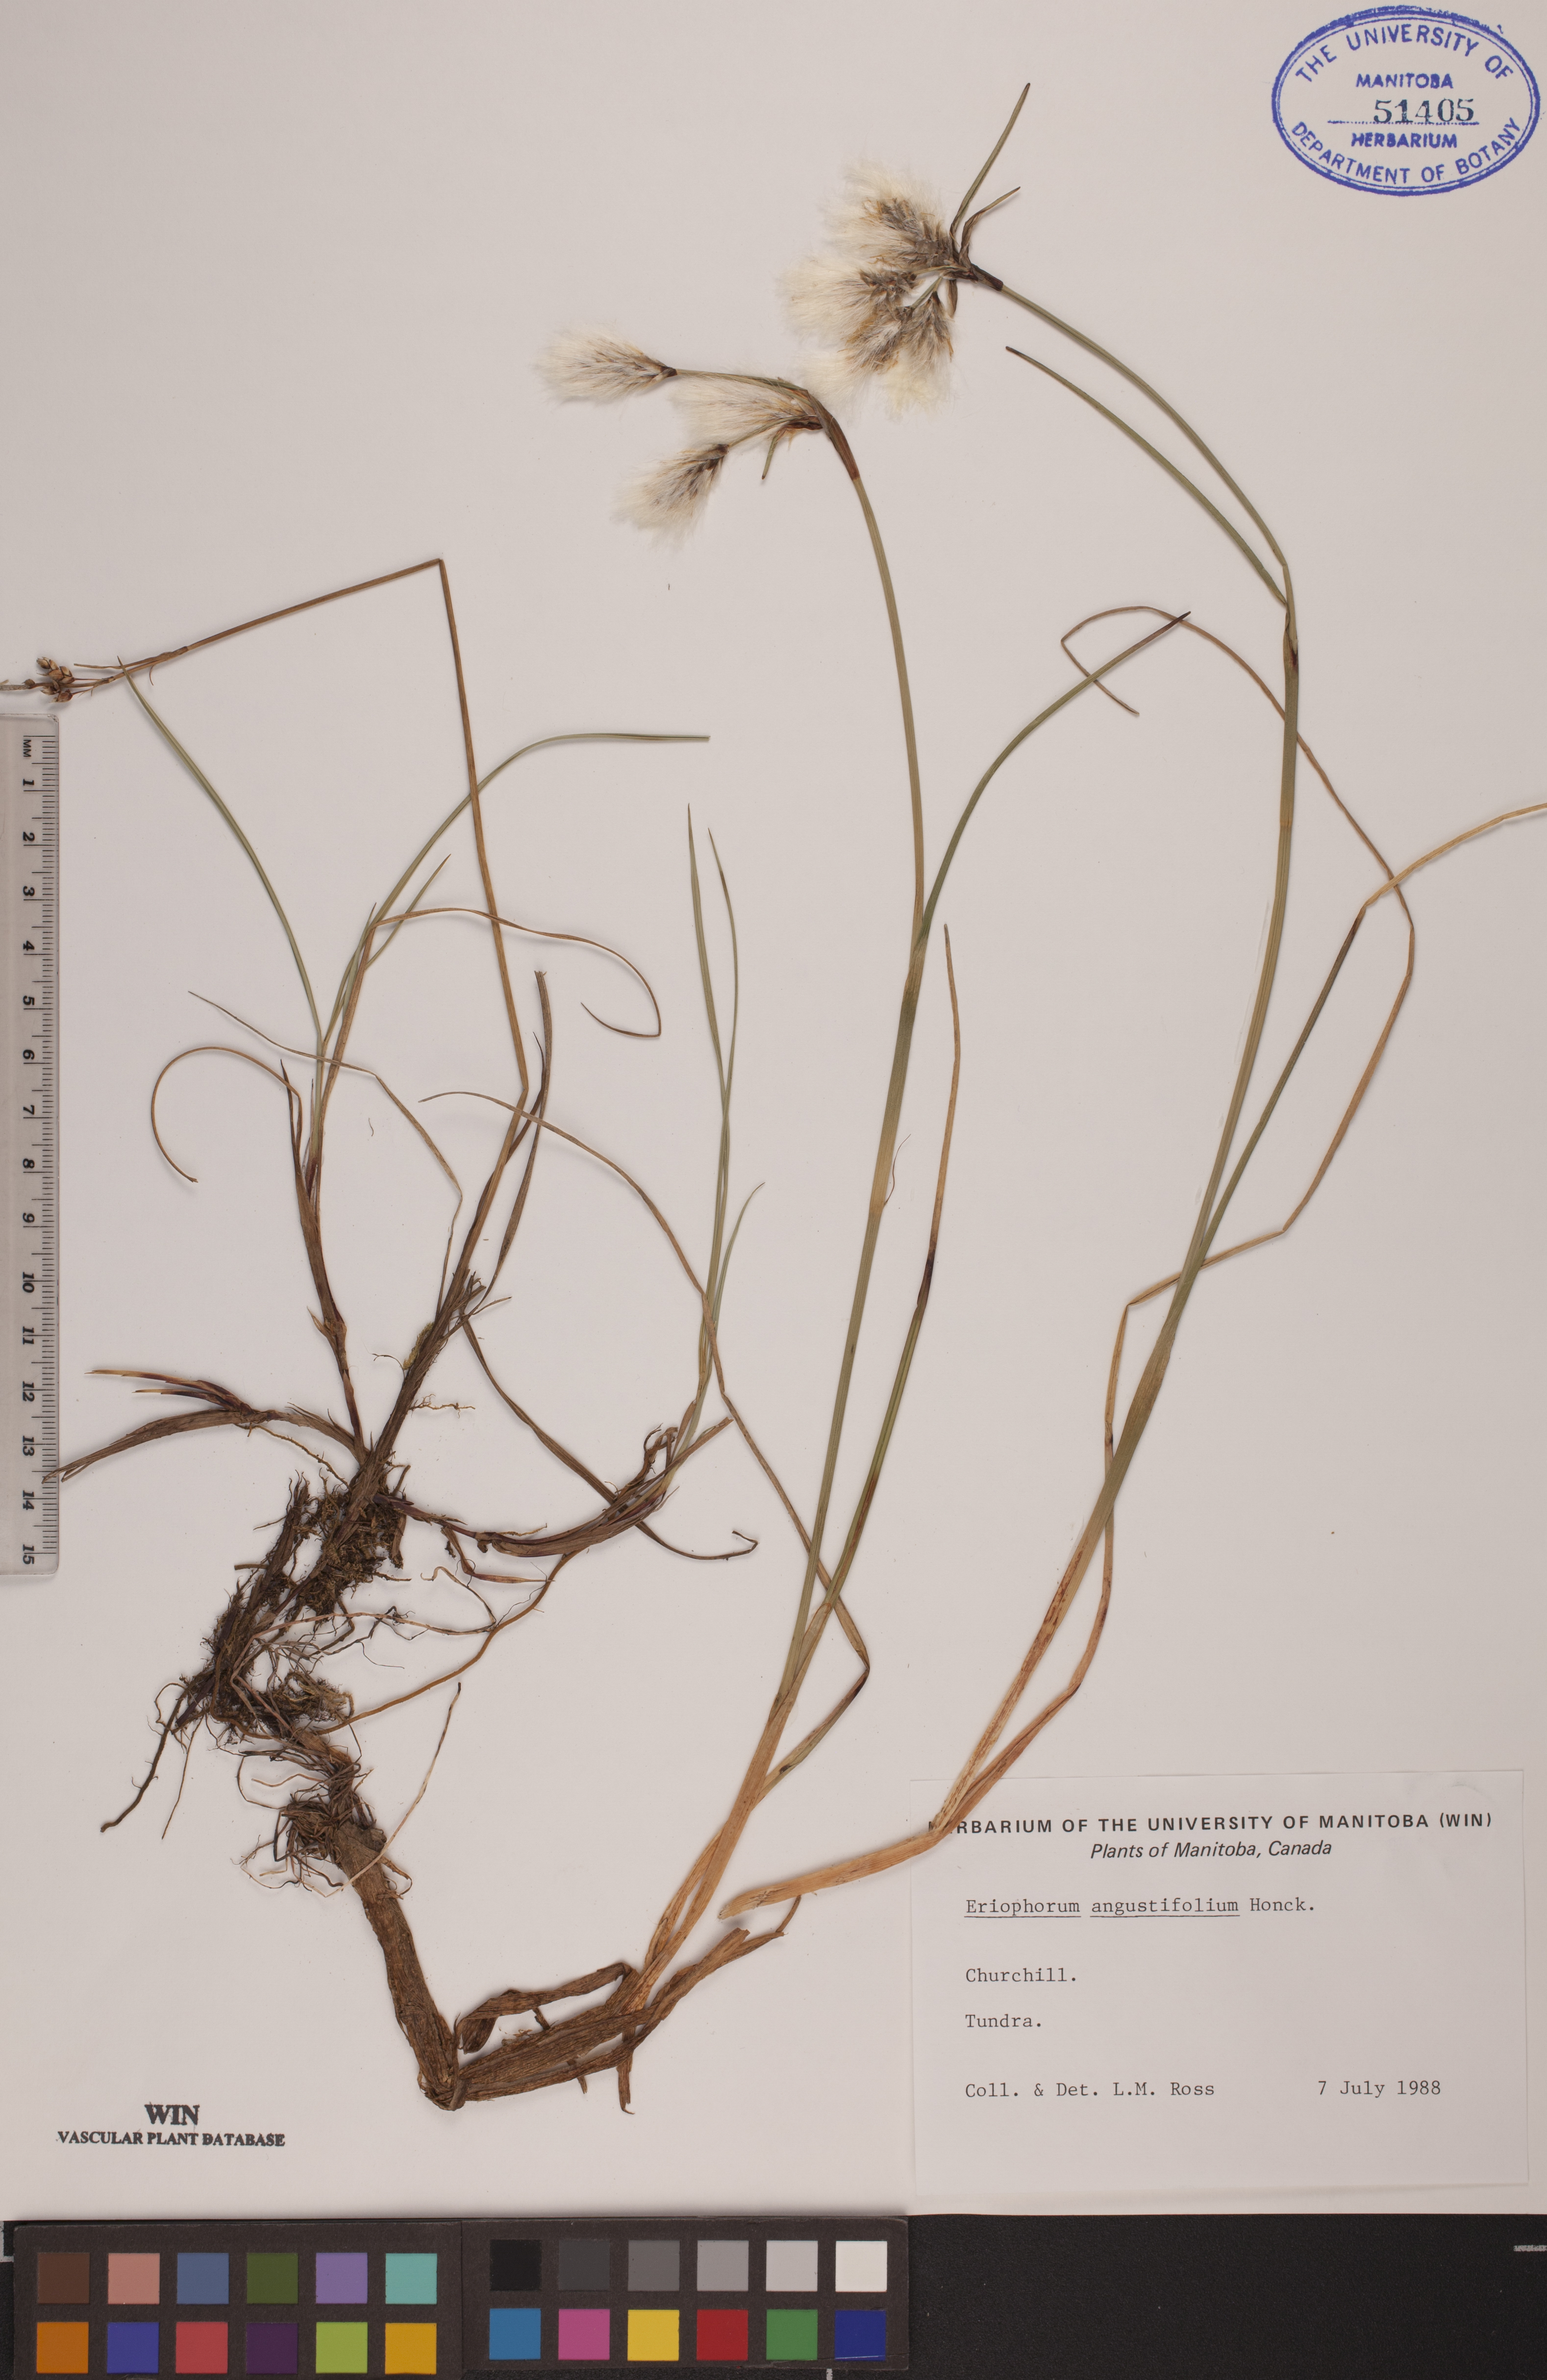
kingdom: Plantae
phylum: Tracheophyta
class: Liliopsida
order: Poales
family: Cyperaceae
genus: Eriophorum
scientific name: Eriophorum angustifolium
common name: Common cottongrass
